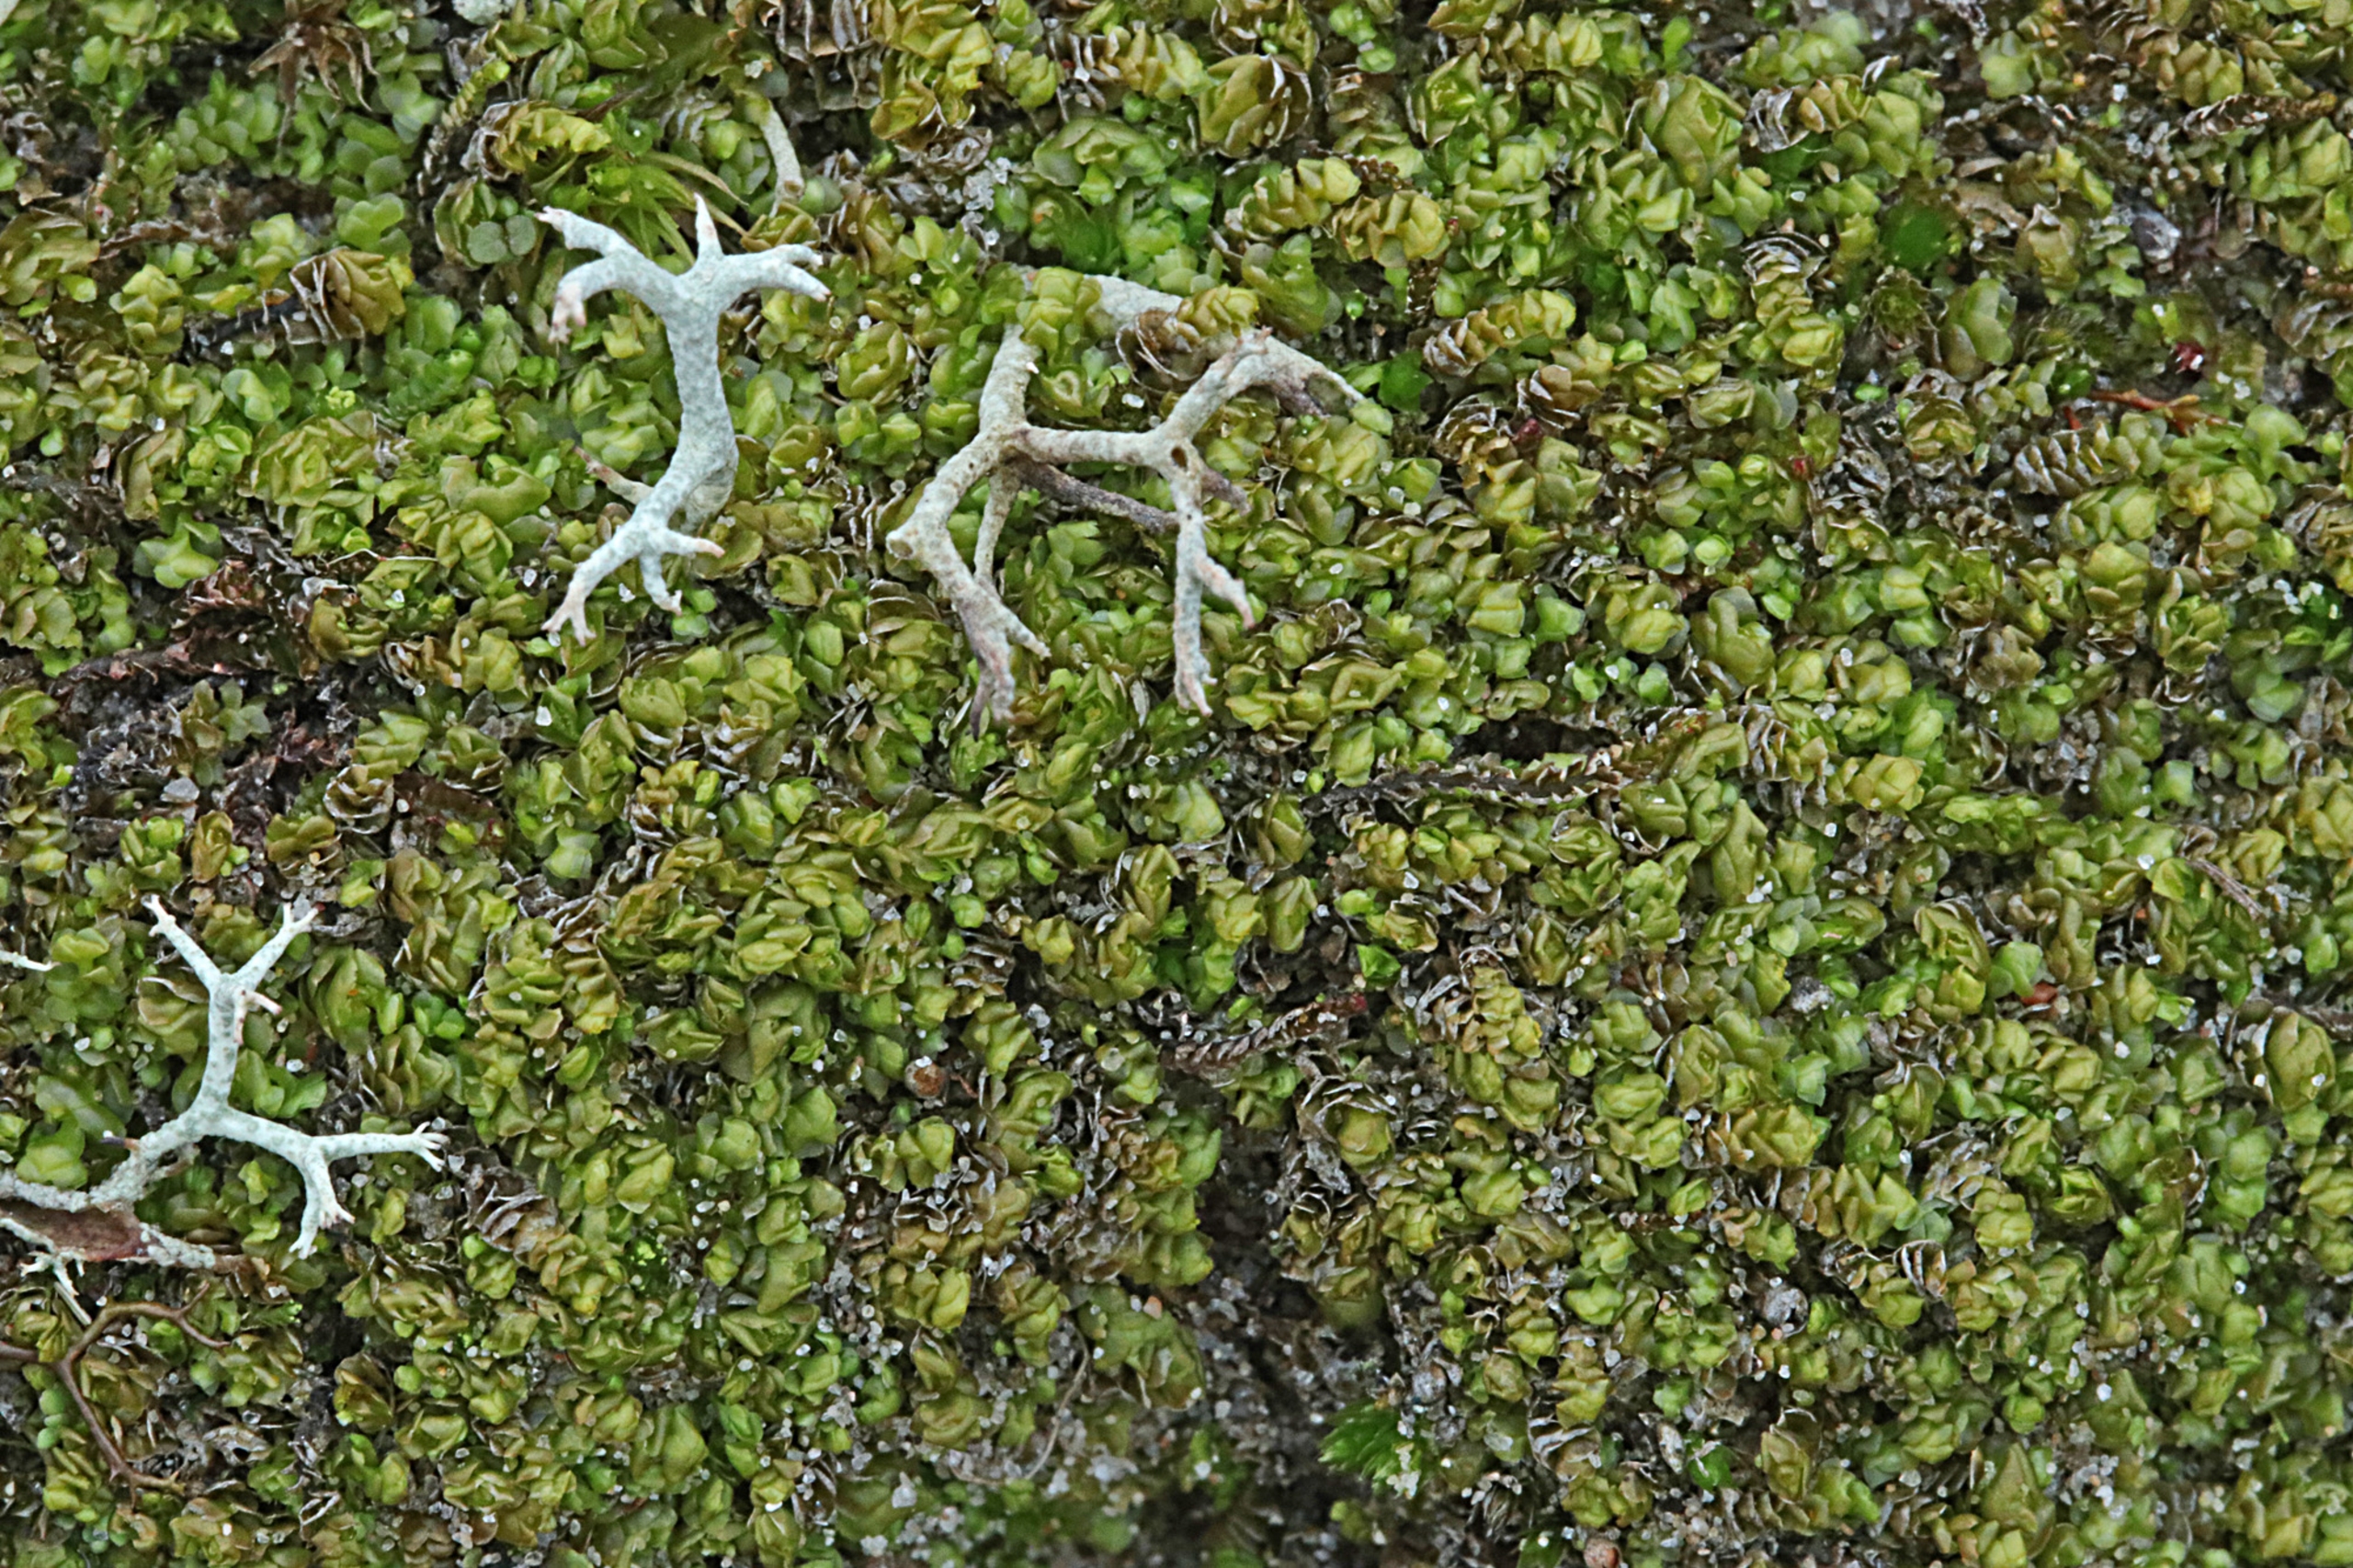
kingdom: Plantae
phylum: Marchantiophyta
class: Jungermanniopsida
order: Jungermanniales
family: Scapaniaceae
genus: Scapania
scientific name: Scapania compacta
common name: Tæt tveblad
